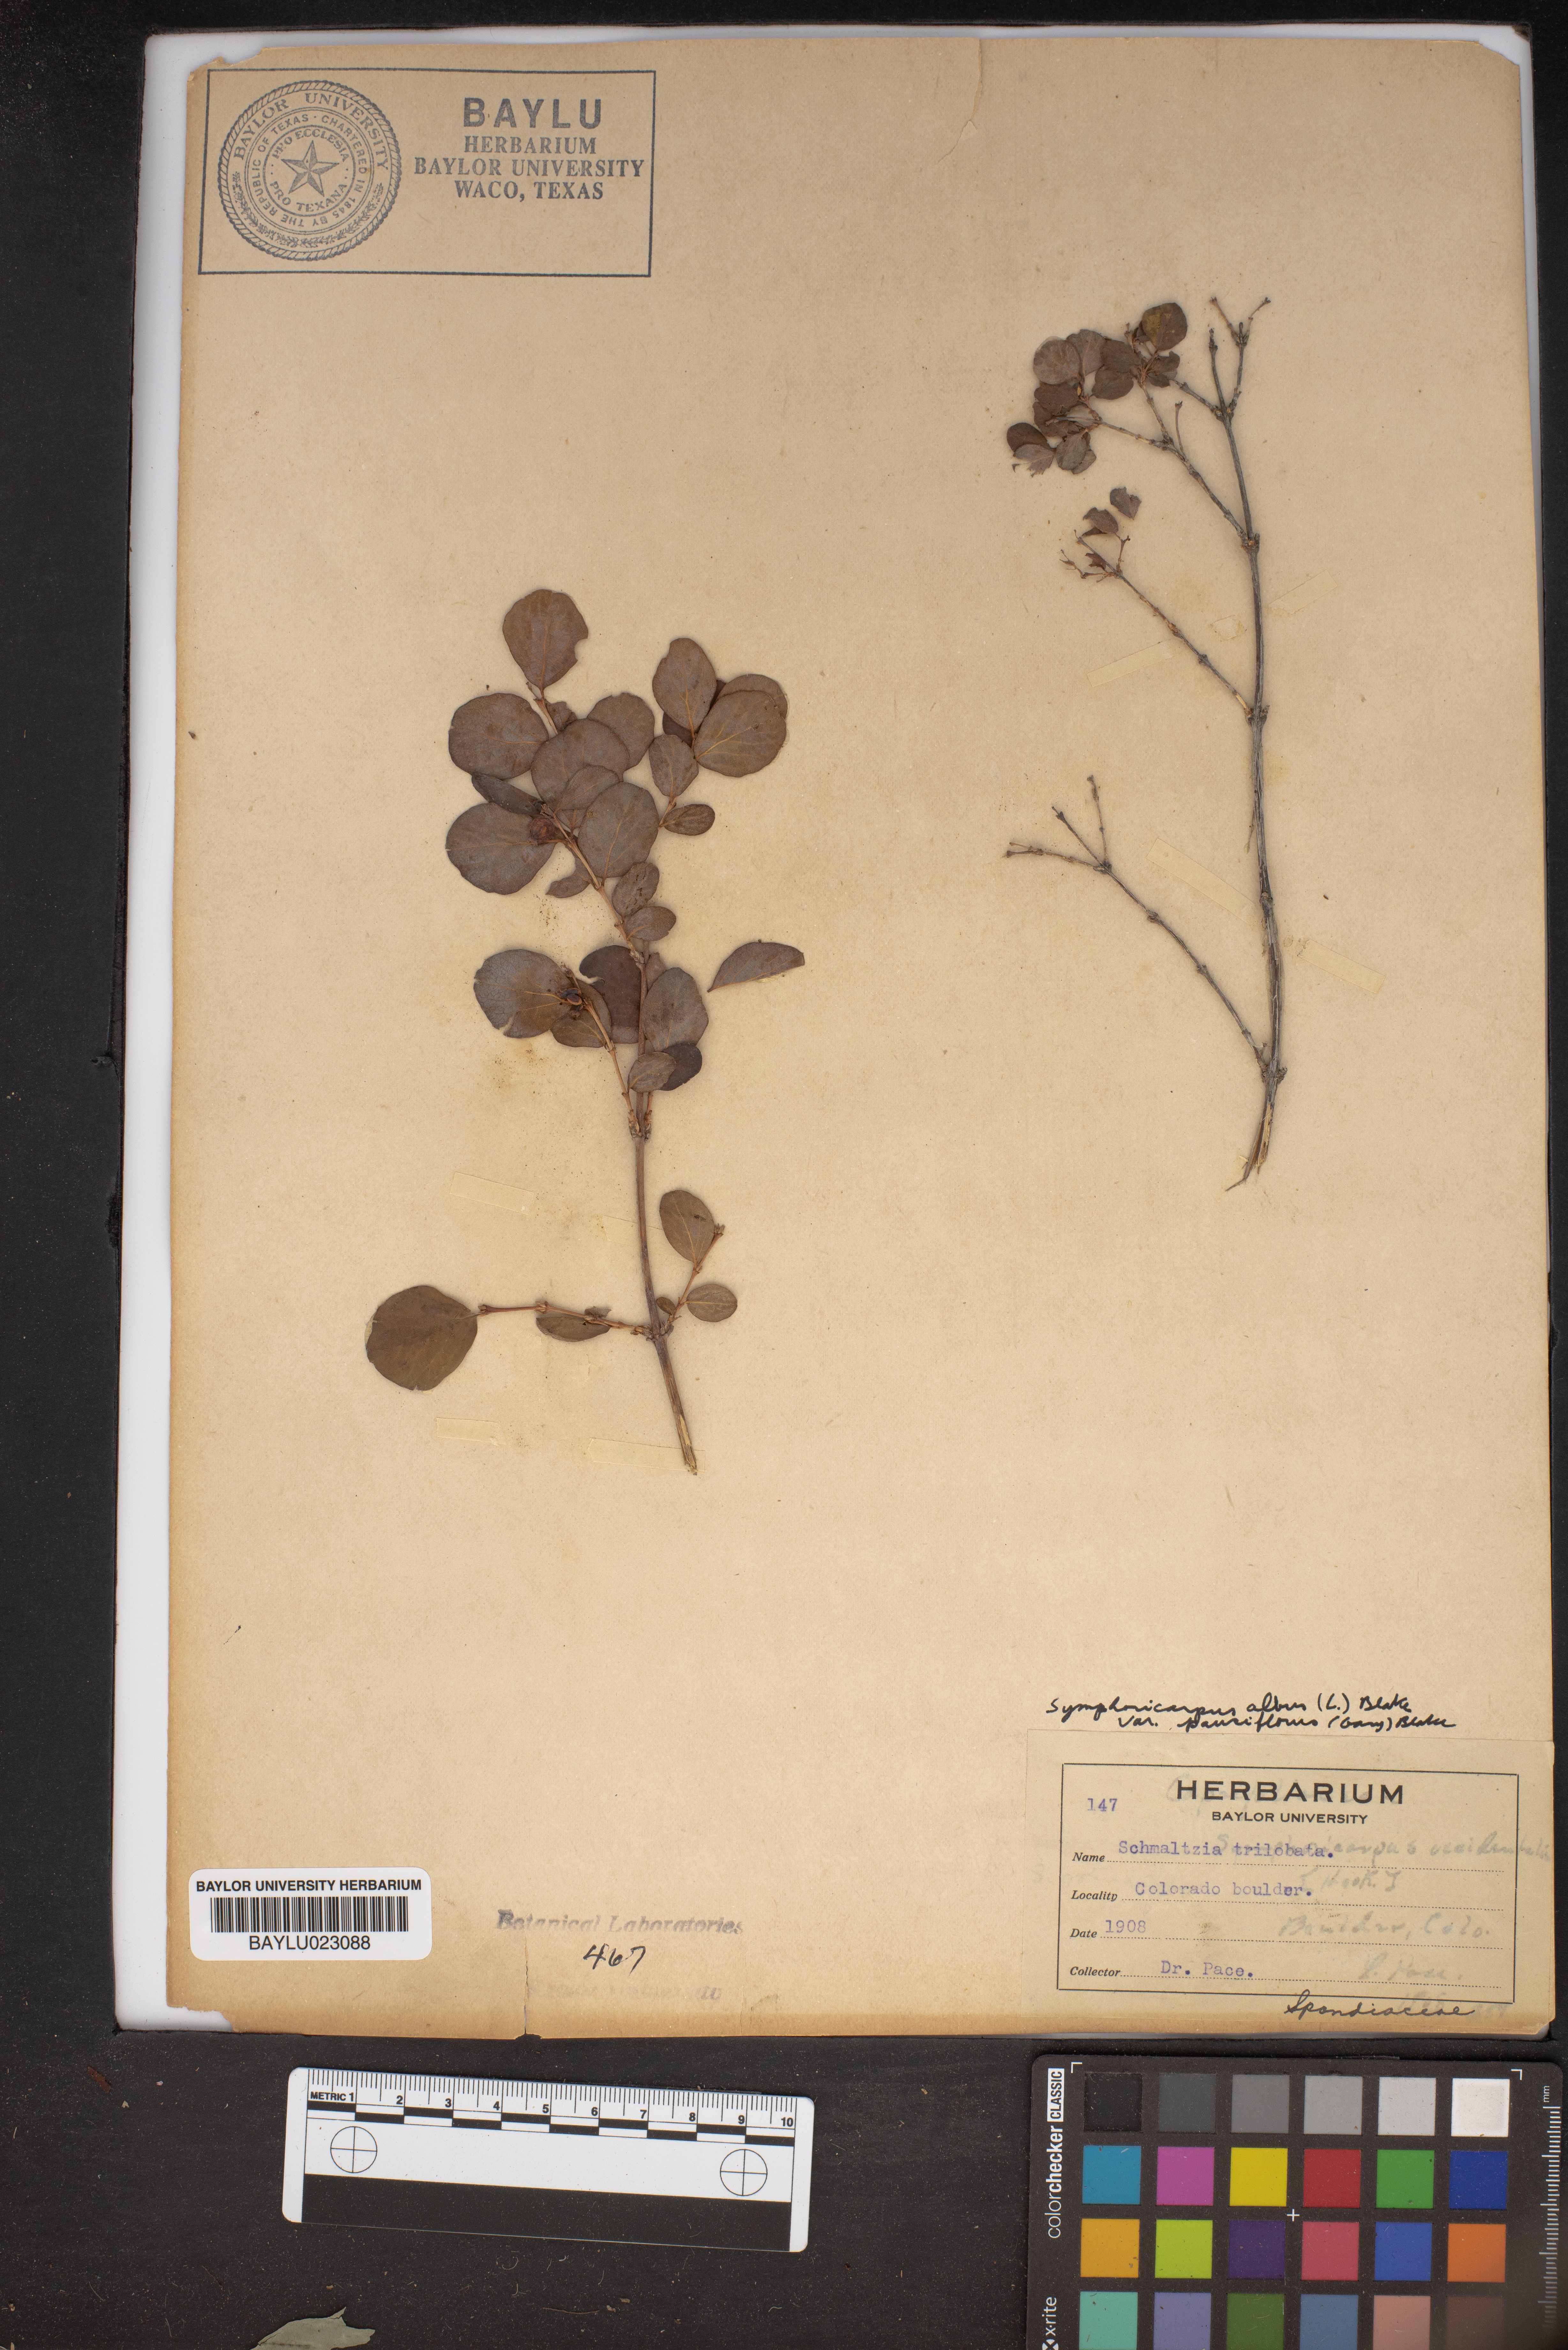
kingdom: Plantae
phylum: Tracheophyta
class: Magnoliopsida
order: Sapindales
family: Anacardiaceae
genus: Rhus
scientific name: Rhus trilobata
